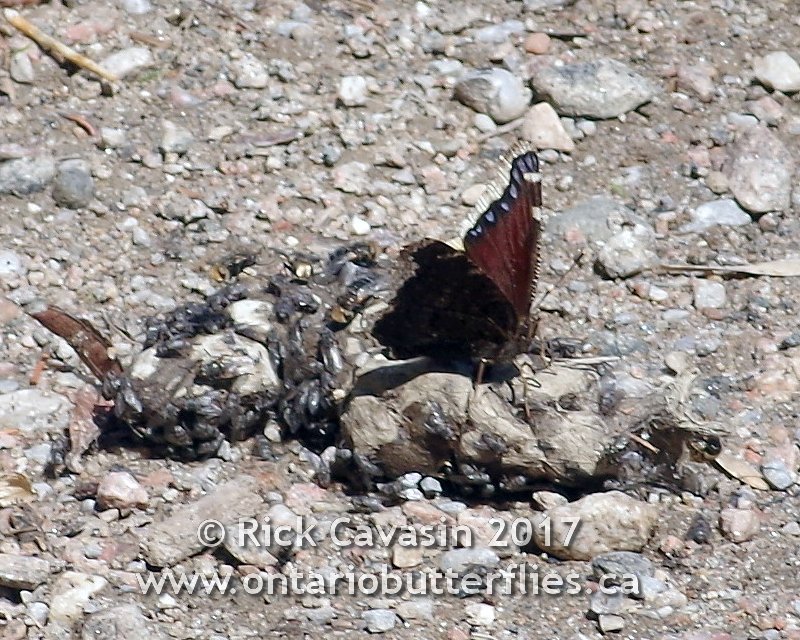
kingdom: Animalia
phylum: Arthropoda
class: Insecta
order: Lepidoptera
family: Nymphalidae
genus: Nymphalis
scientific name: Nymphalis antiopa
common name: Mourning Cloak
